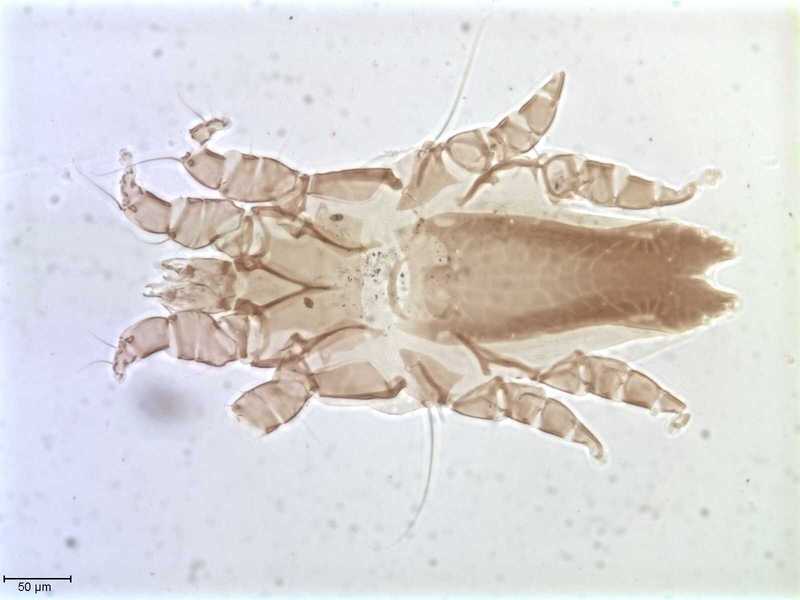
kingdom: Animalia
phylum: Arthropoda
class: Arachnida
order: Sarcoptiformes
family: Alloptidae
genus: Brephosceles
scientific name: Brephosceles
